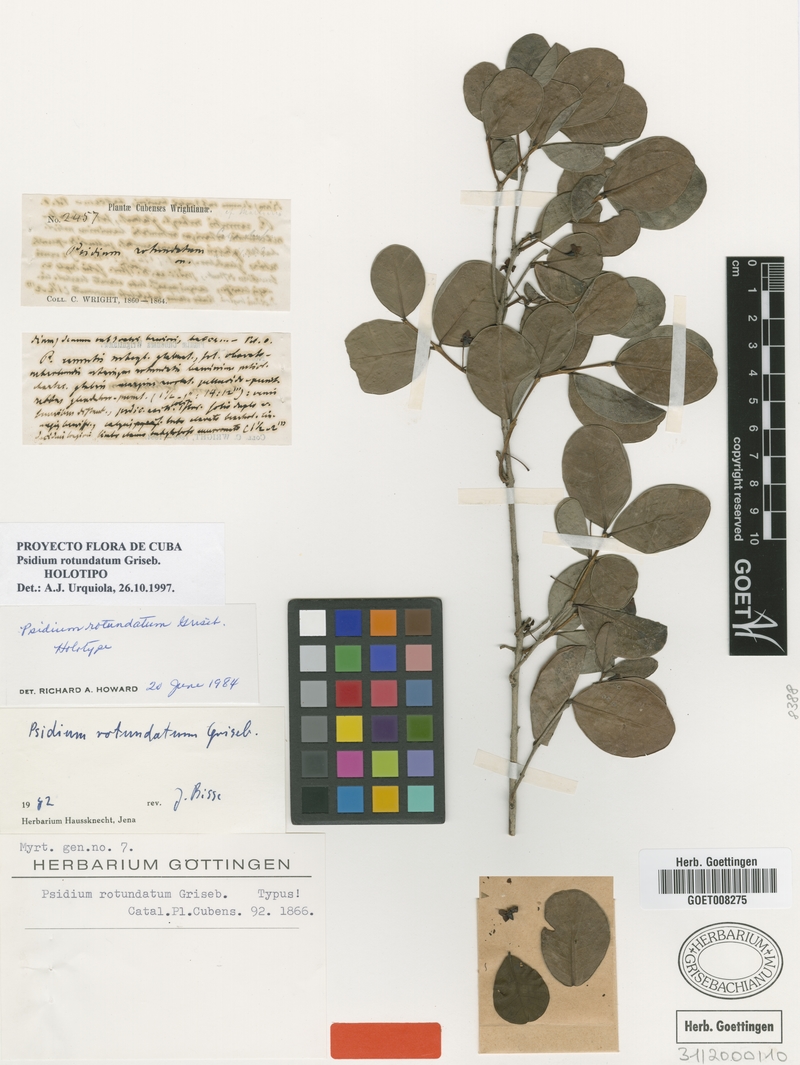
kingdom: Plantae
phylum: Tracheophyta
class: Magnoliopsida
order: Myrtales
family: Myrtaceae
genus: Psidium
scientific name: Psidium rotundatum
